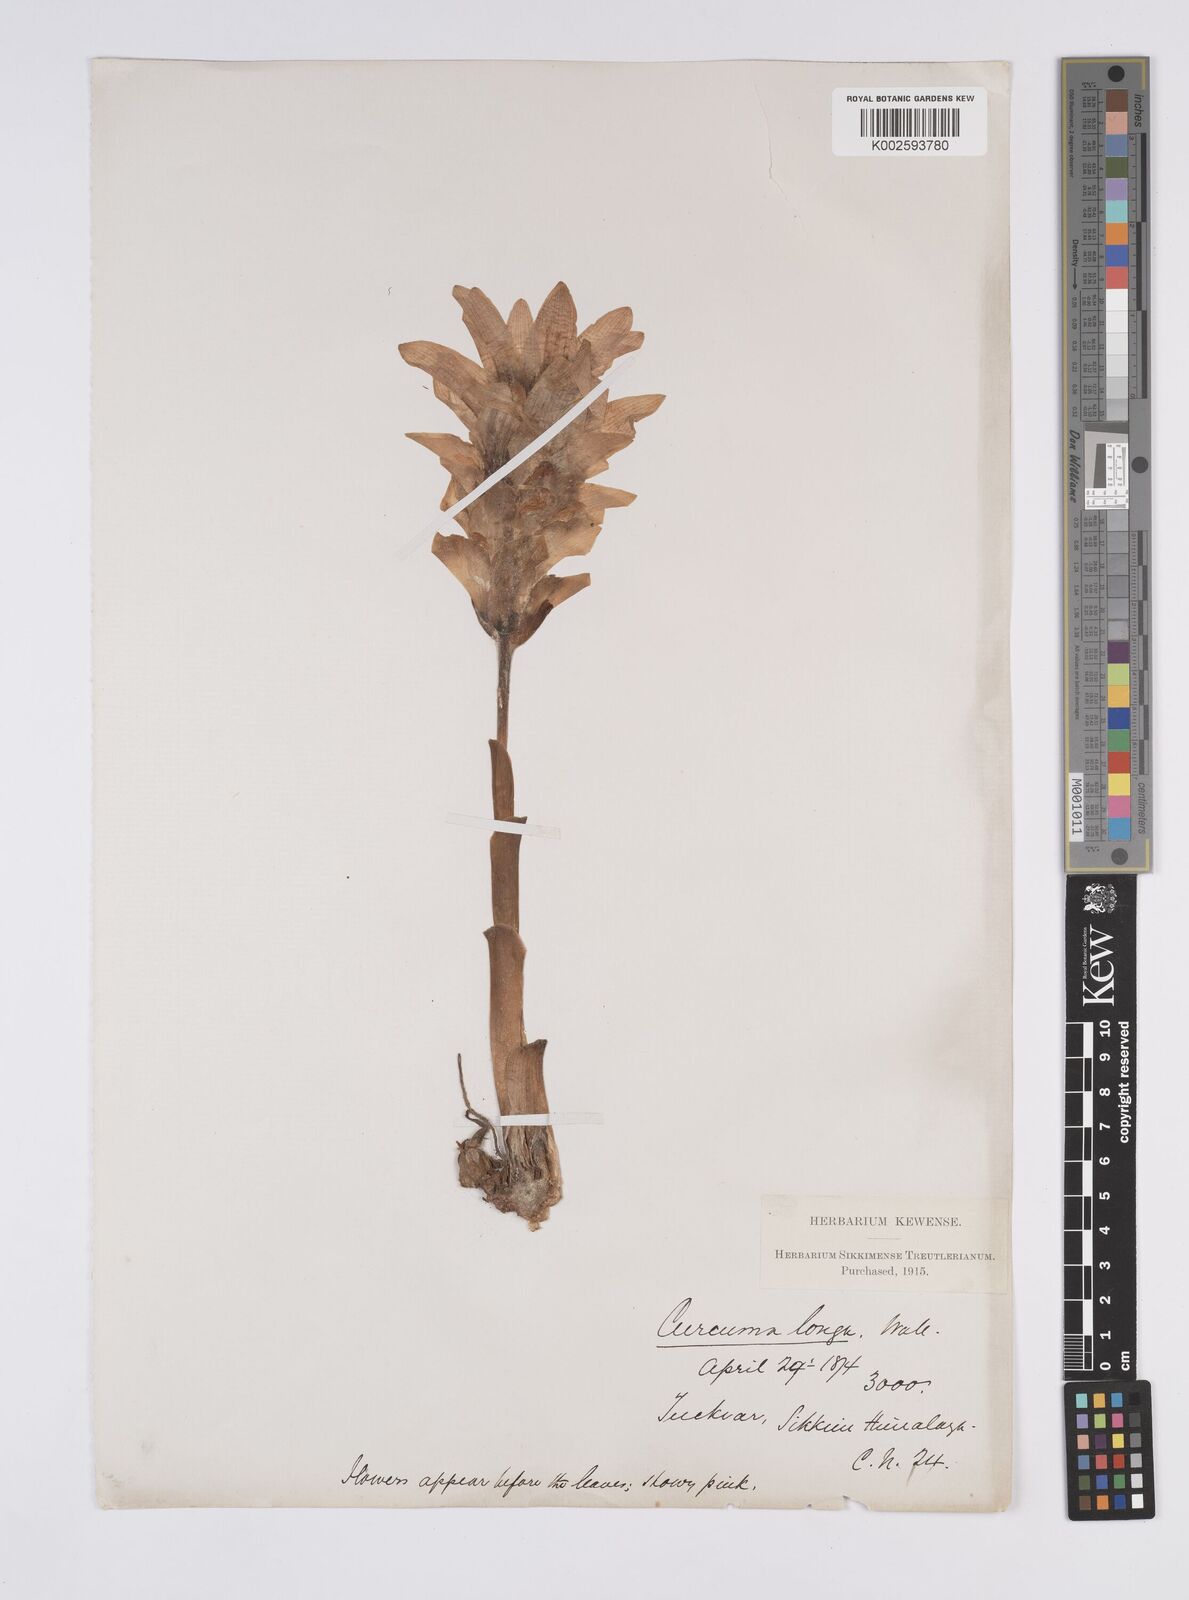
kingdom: Plantae
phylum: Tracheophyta
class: Liliopsida
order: Zingiberales
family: Zingiberaceae
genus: Curcuma
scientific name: Curcuma
